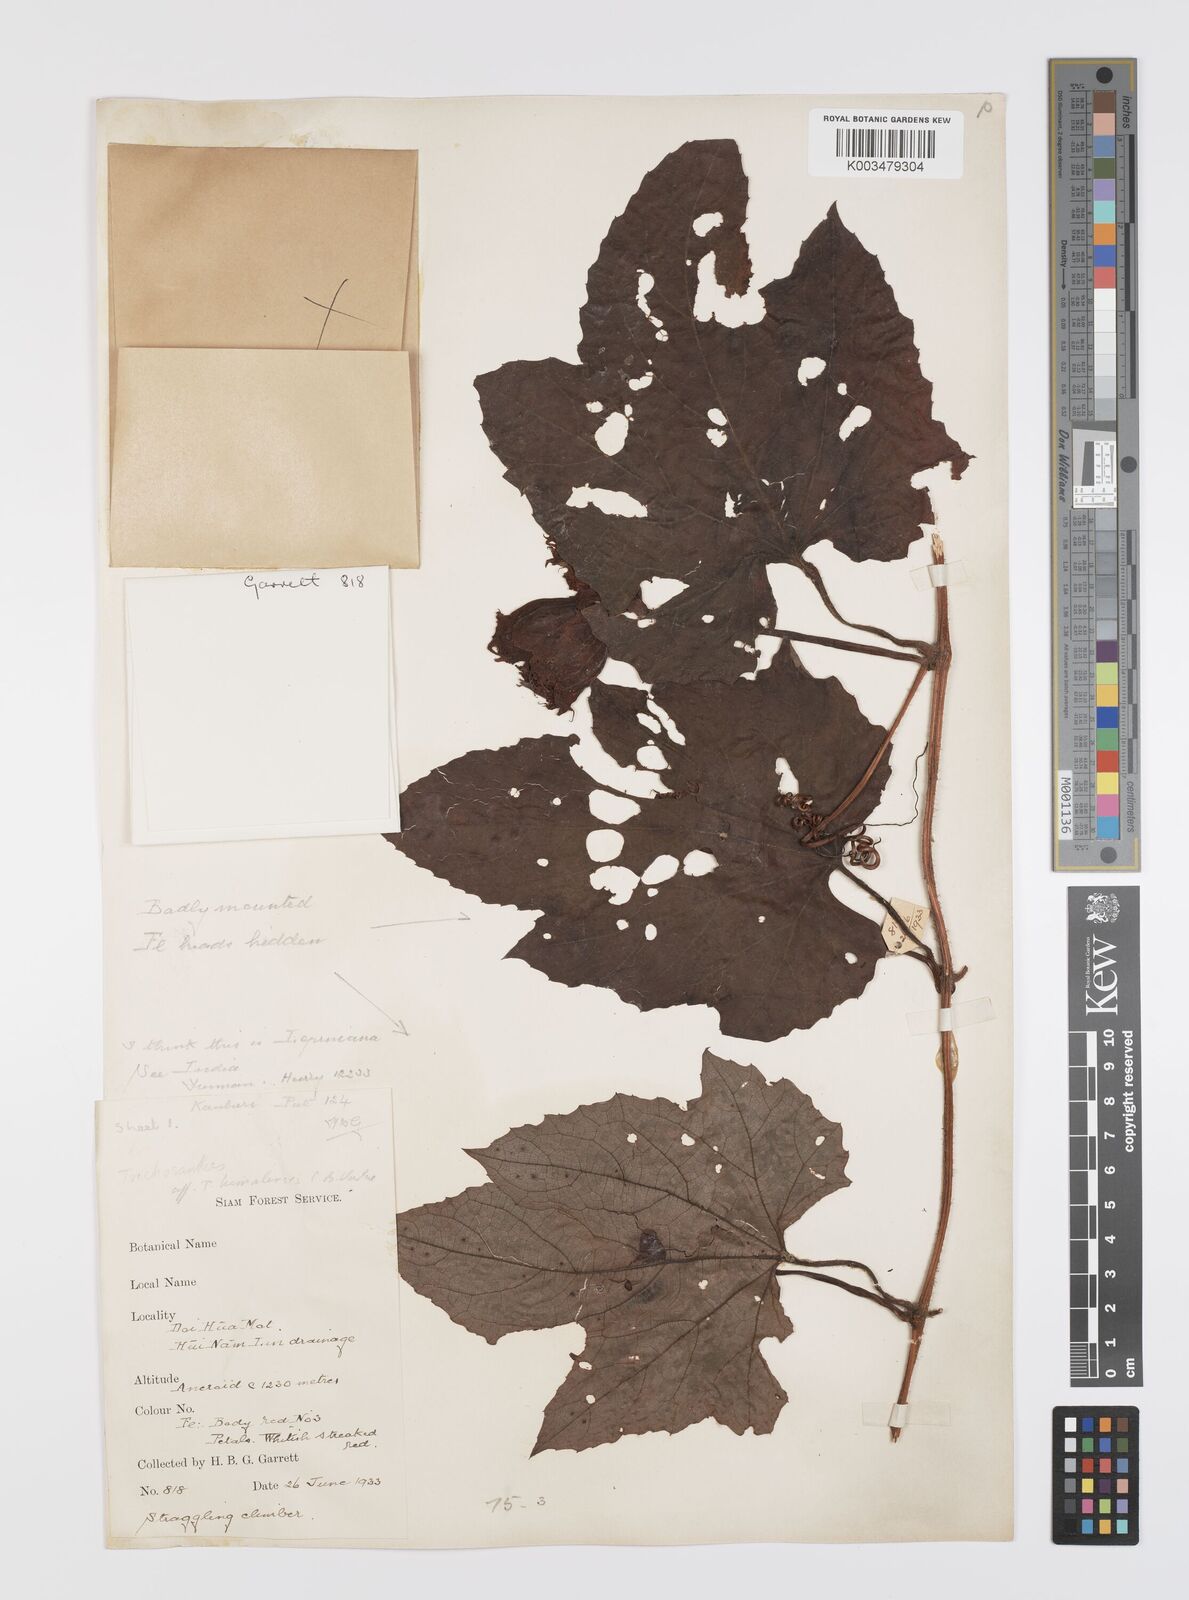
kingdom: Plantae
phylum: Tracheophyta
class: Magnoliopsida
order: Cucurbitales
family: Cucurbitaceae
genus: Trichosanthes
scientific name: Trichosanthes rubriflos
